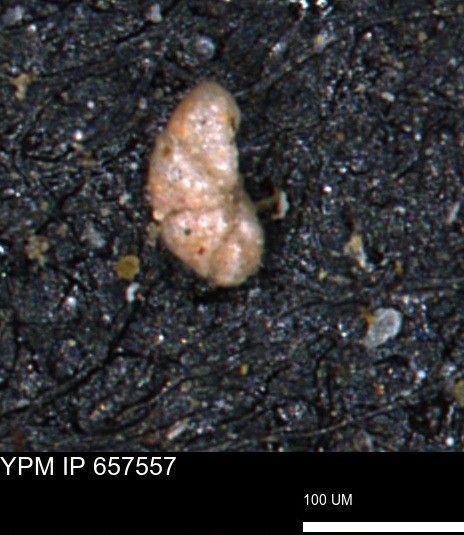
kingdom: Chromista
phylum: Foraminifera
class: Globothalamea
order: Lituolida
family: Lituolidae
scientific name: Lituolidae
